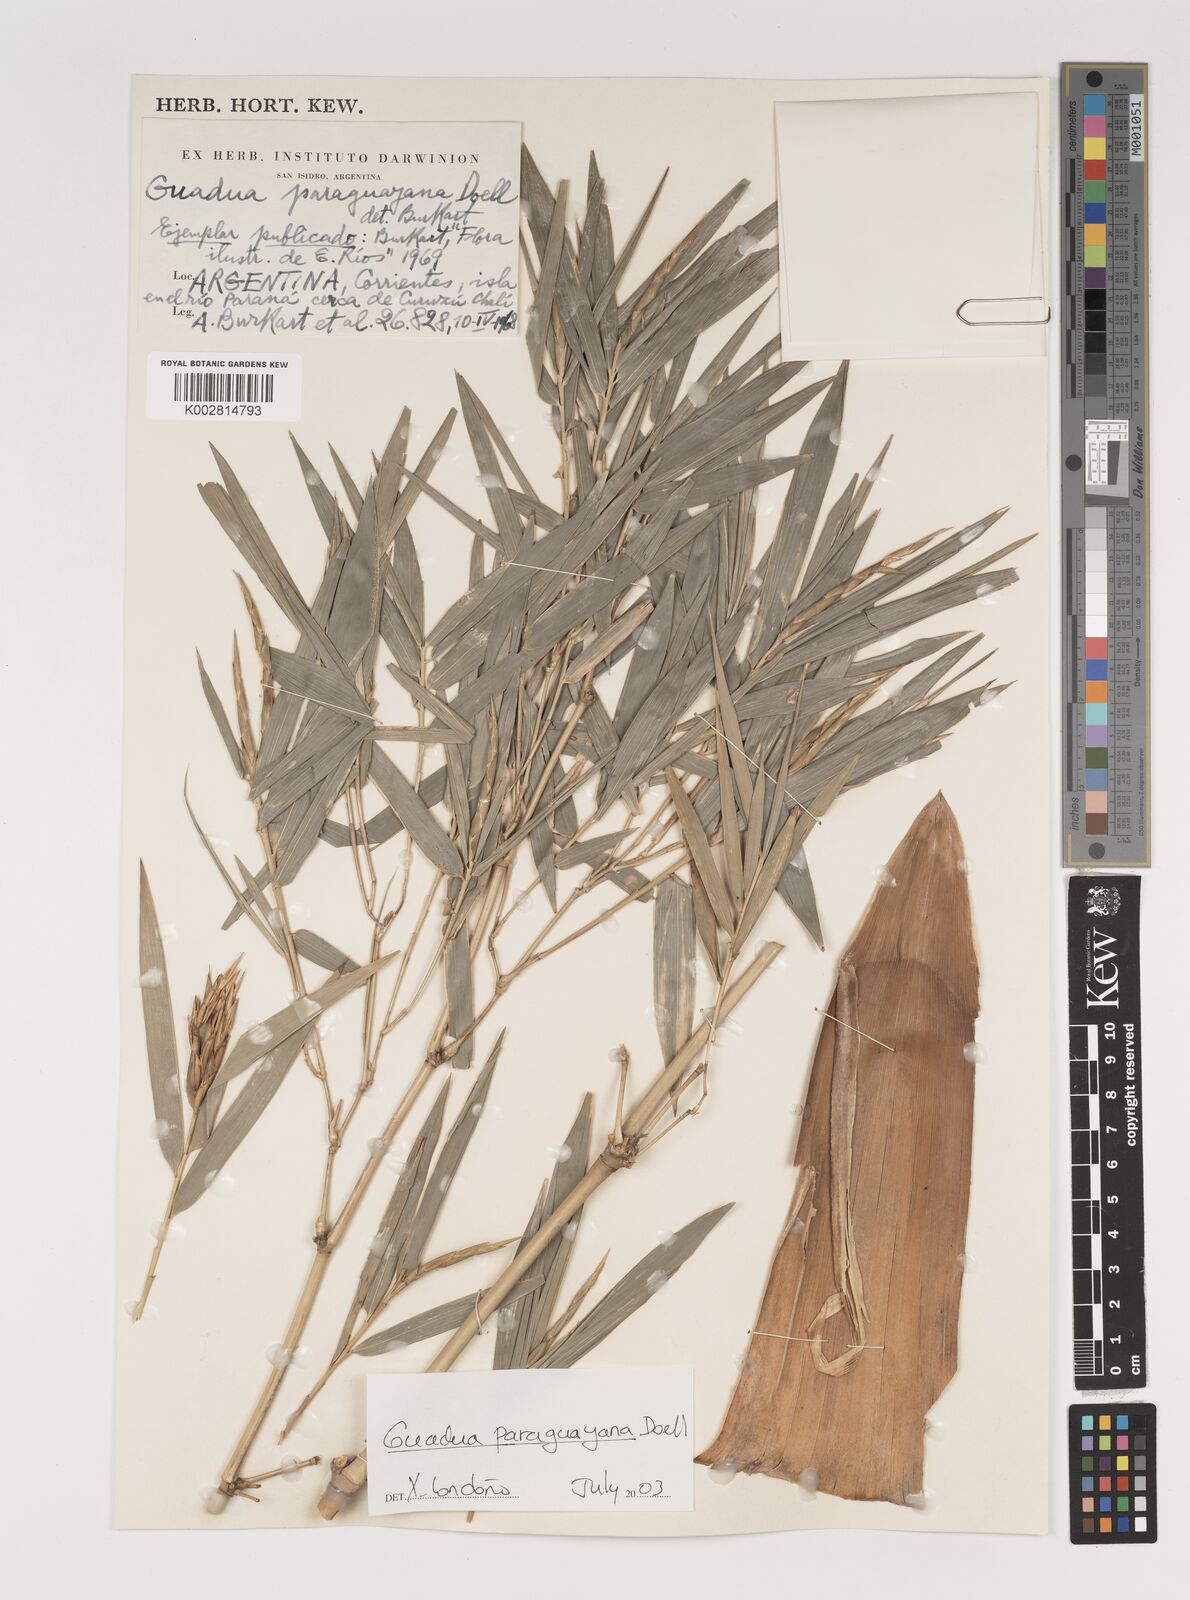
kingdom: Plantae
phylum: Tracheophyta
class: Liliopsida
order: Poales
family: Poaceae
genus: Guadua
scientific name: Guadua paraguayana
